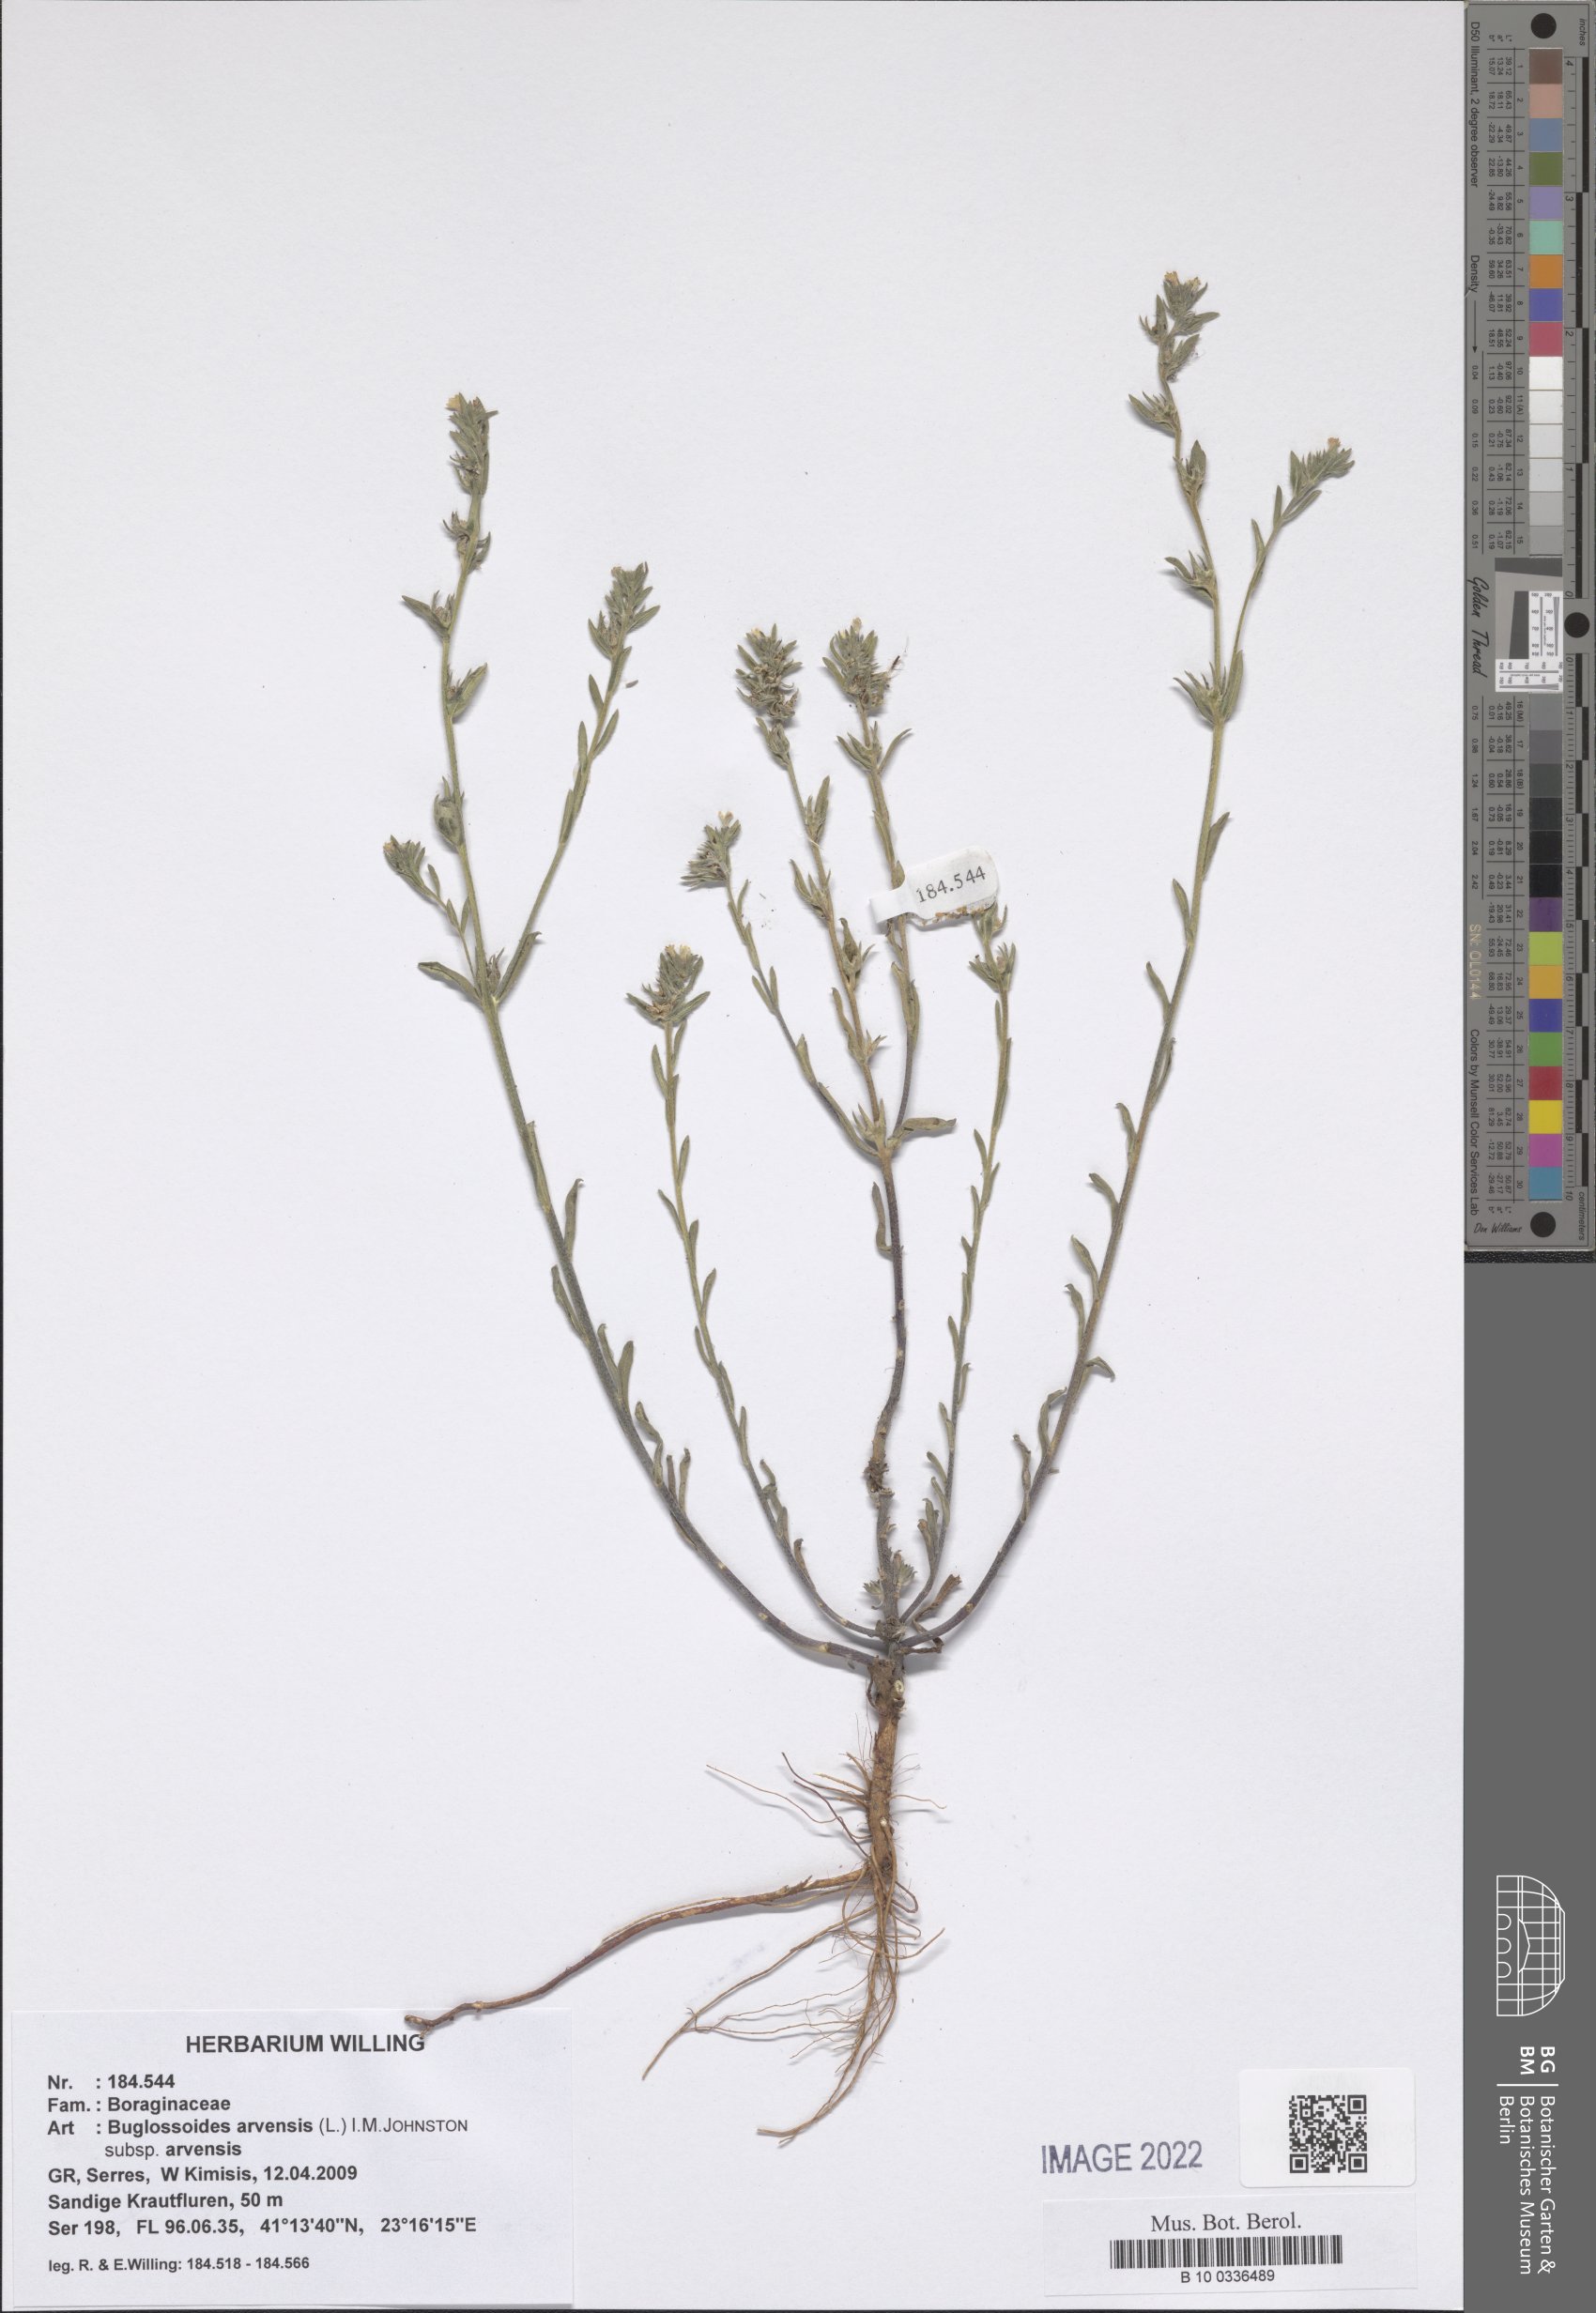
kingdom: Plantae
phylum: Tracheophyta
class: Magnoliopsida
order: Boraginales
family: Boraginaceae
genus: Buglossoides
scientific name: Buglossoides arvensis
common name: Corn gromwell
